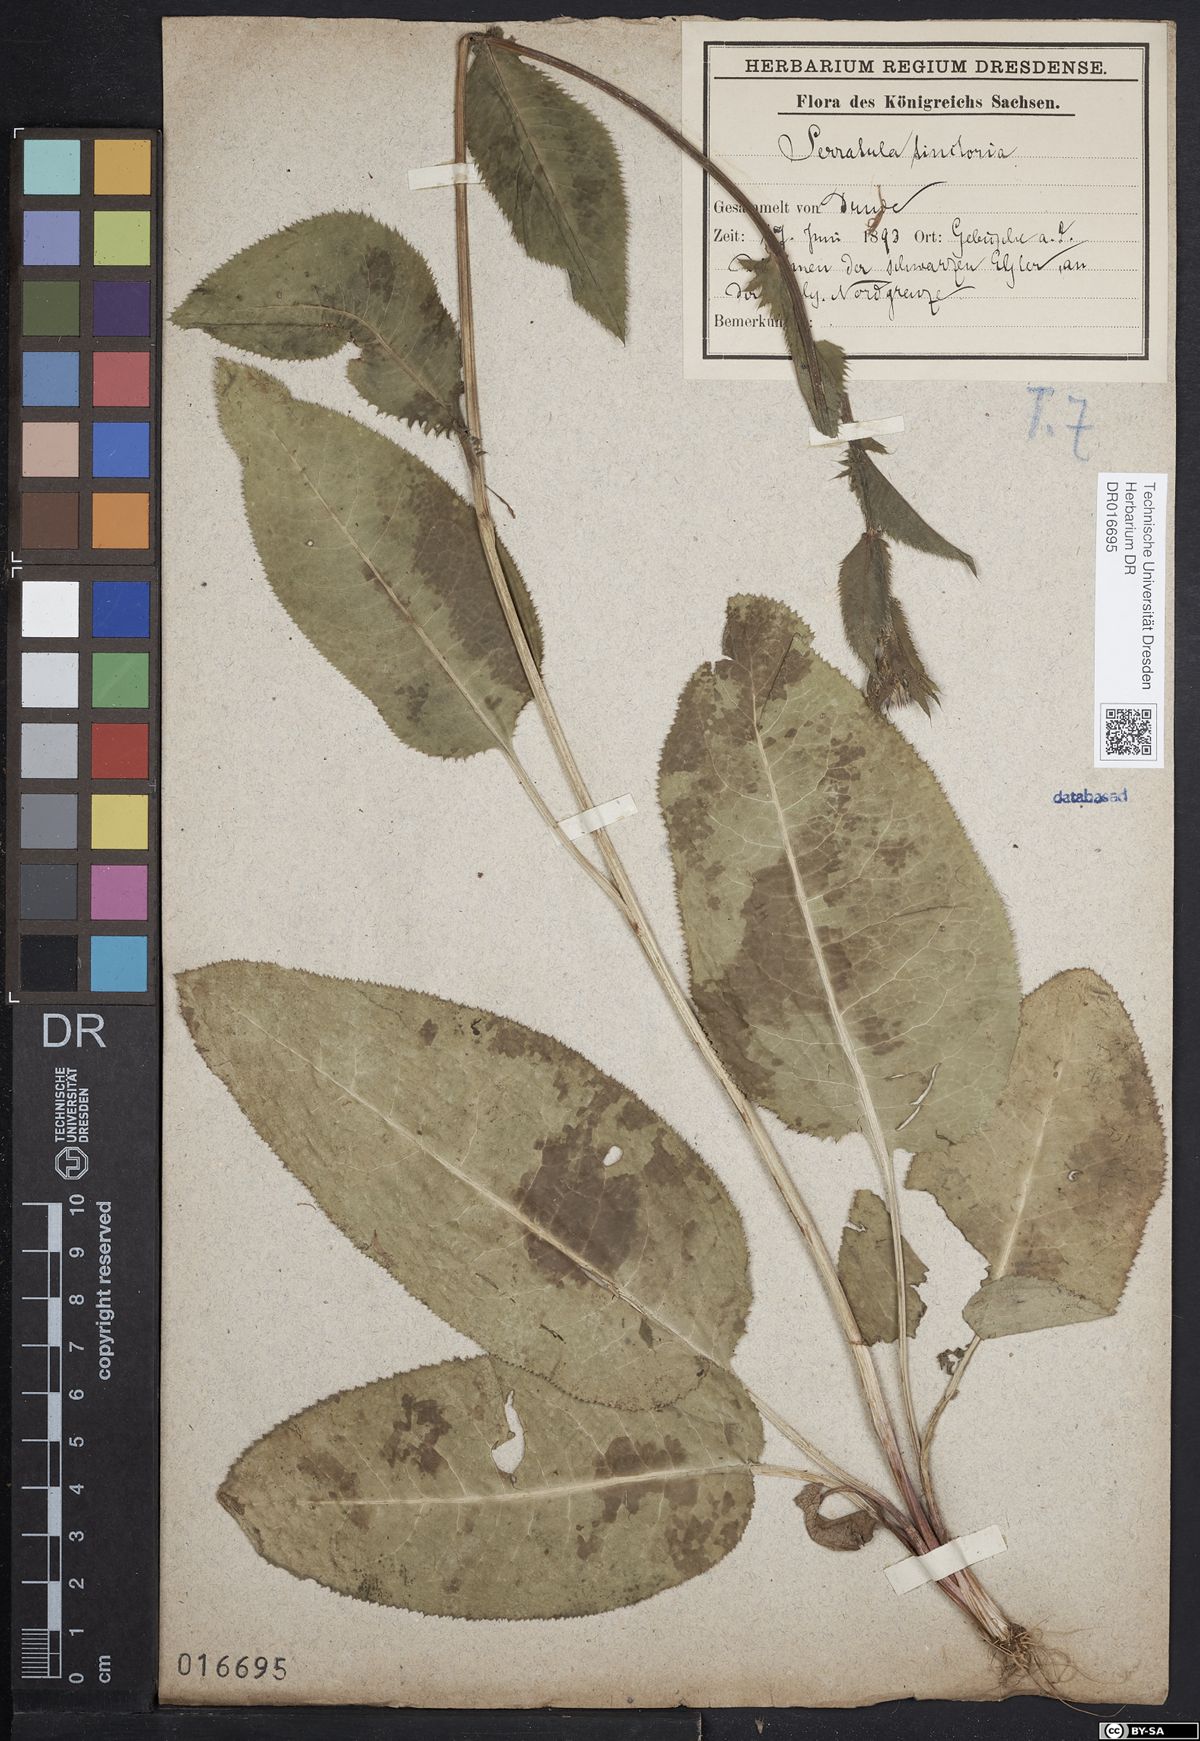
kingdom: Plantae
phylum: Tracheophyta
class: Magnoliopsida
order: Asterales
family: Asteraceae
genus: Serratula
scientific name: Serratula tinctoria
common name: Saw-wort
